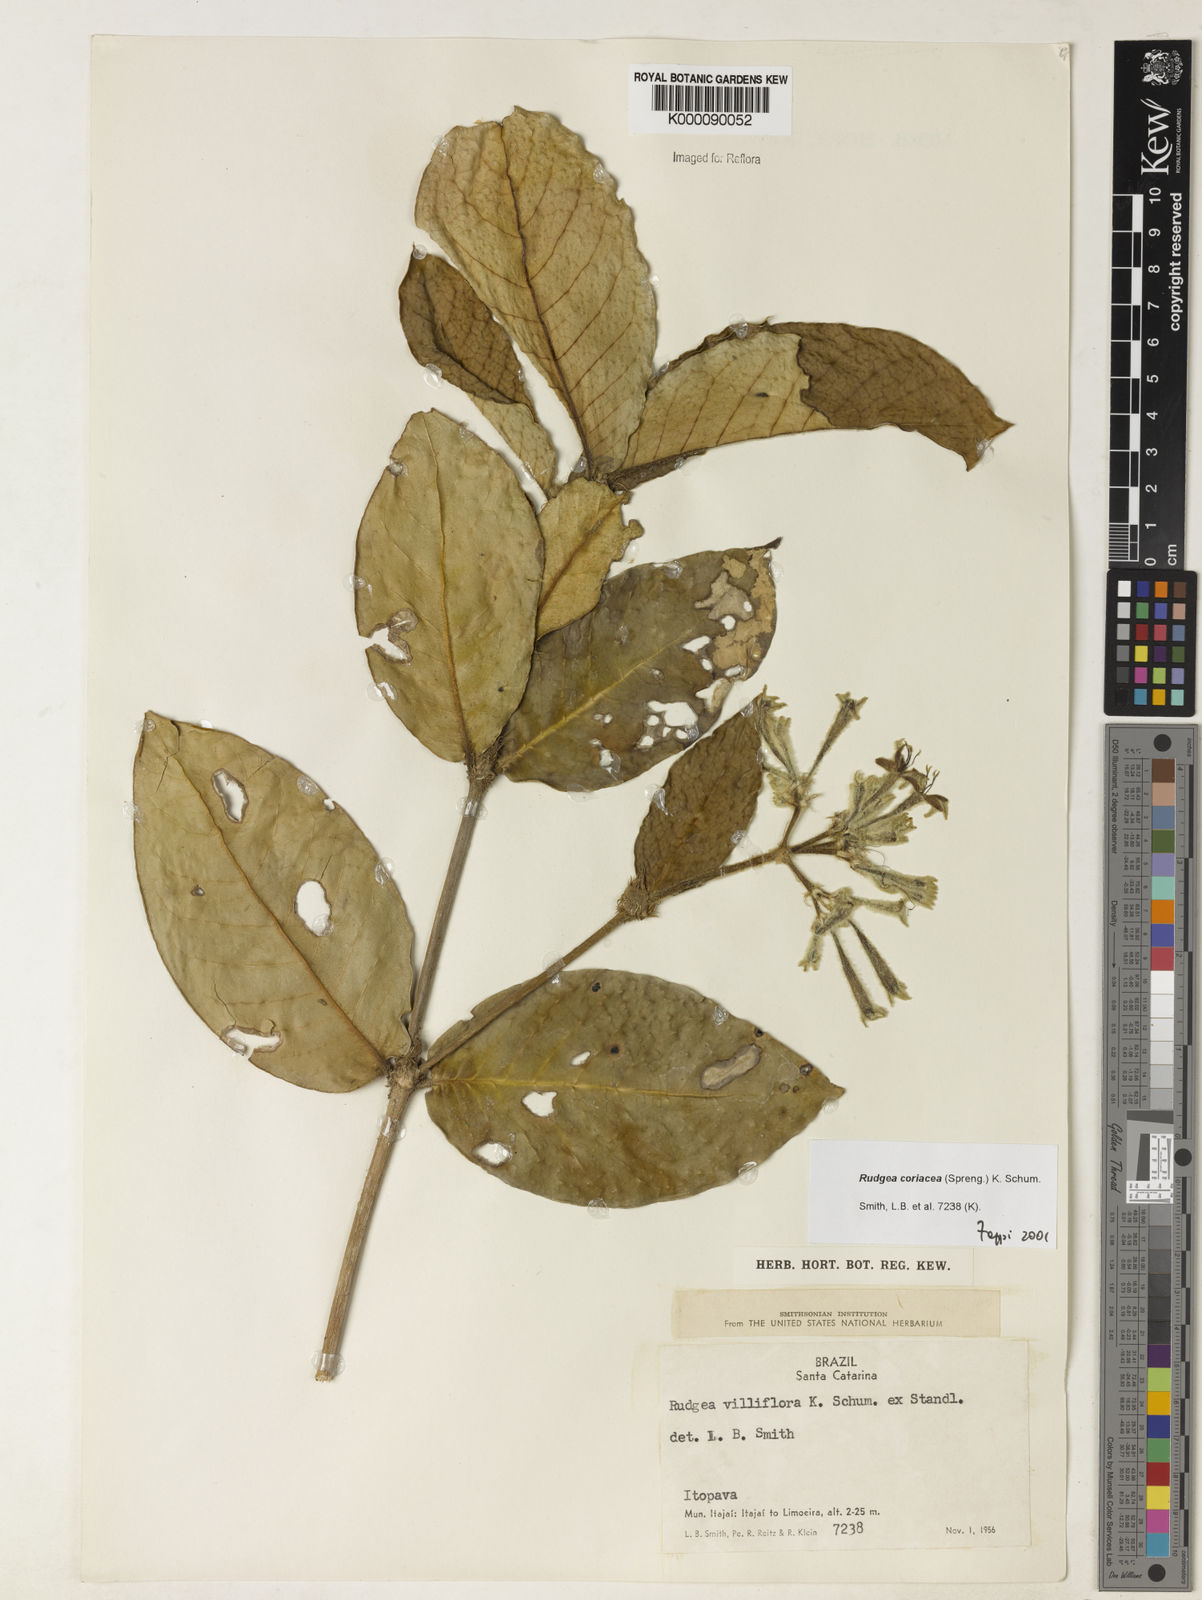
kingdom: Plantae
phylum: Tracheophyta
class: Magnoliopsida
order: Gentianales
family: Rubiaceae
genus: Rudgea
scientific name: Rudgea coriacea
